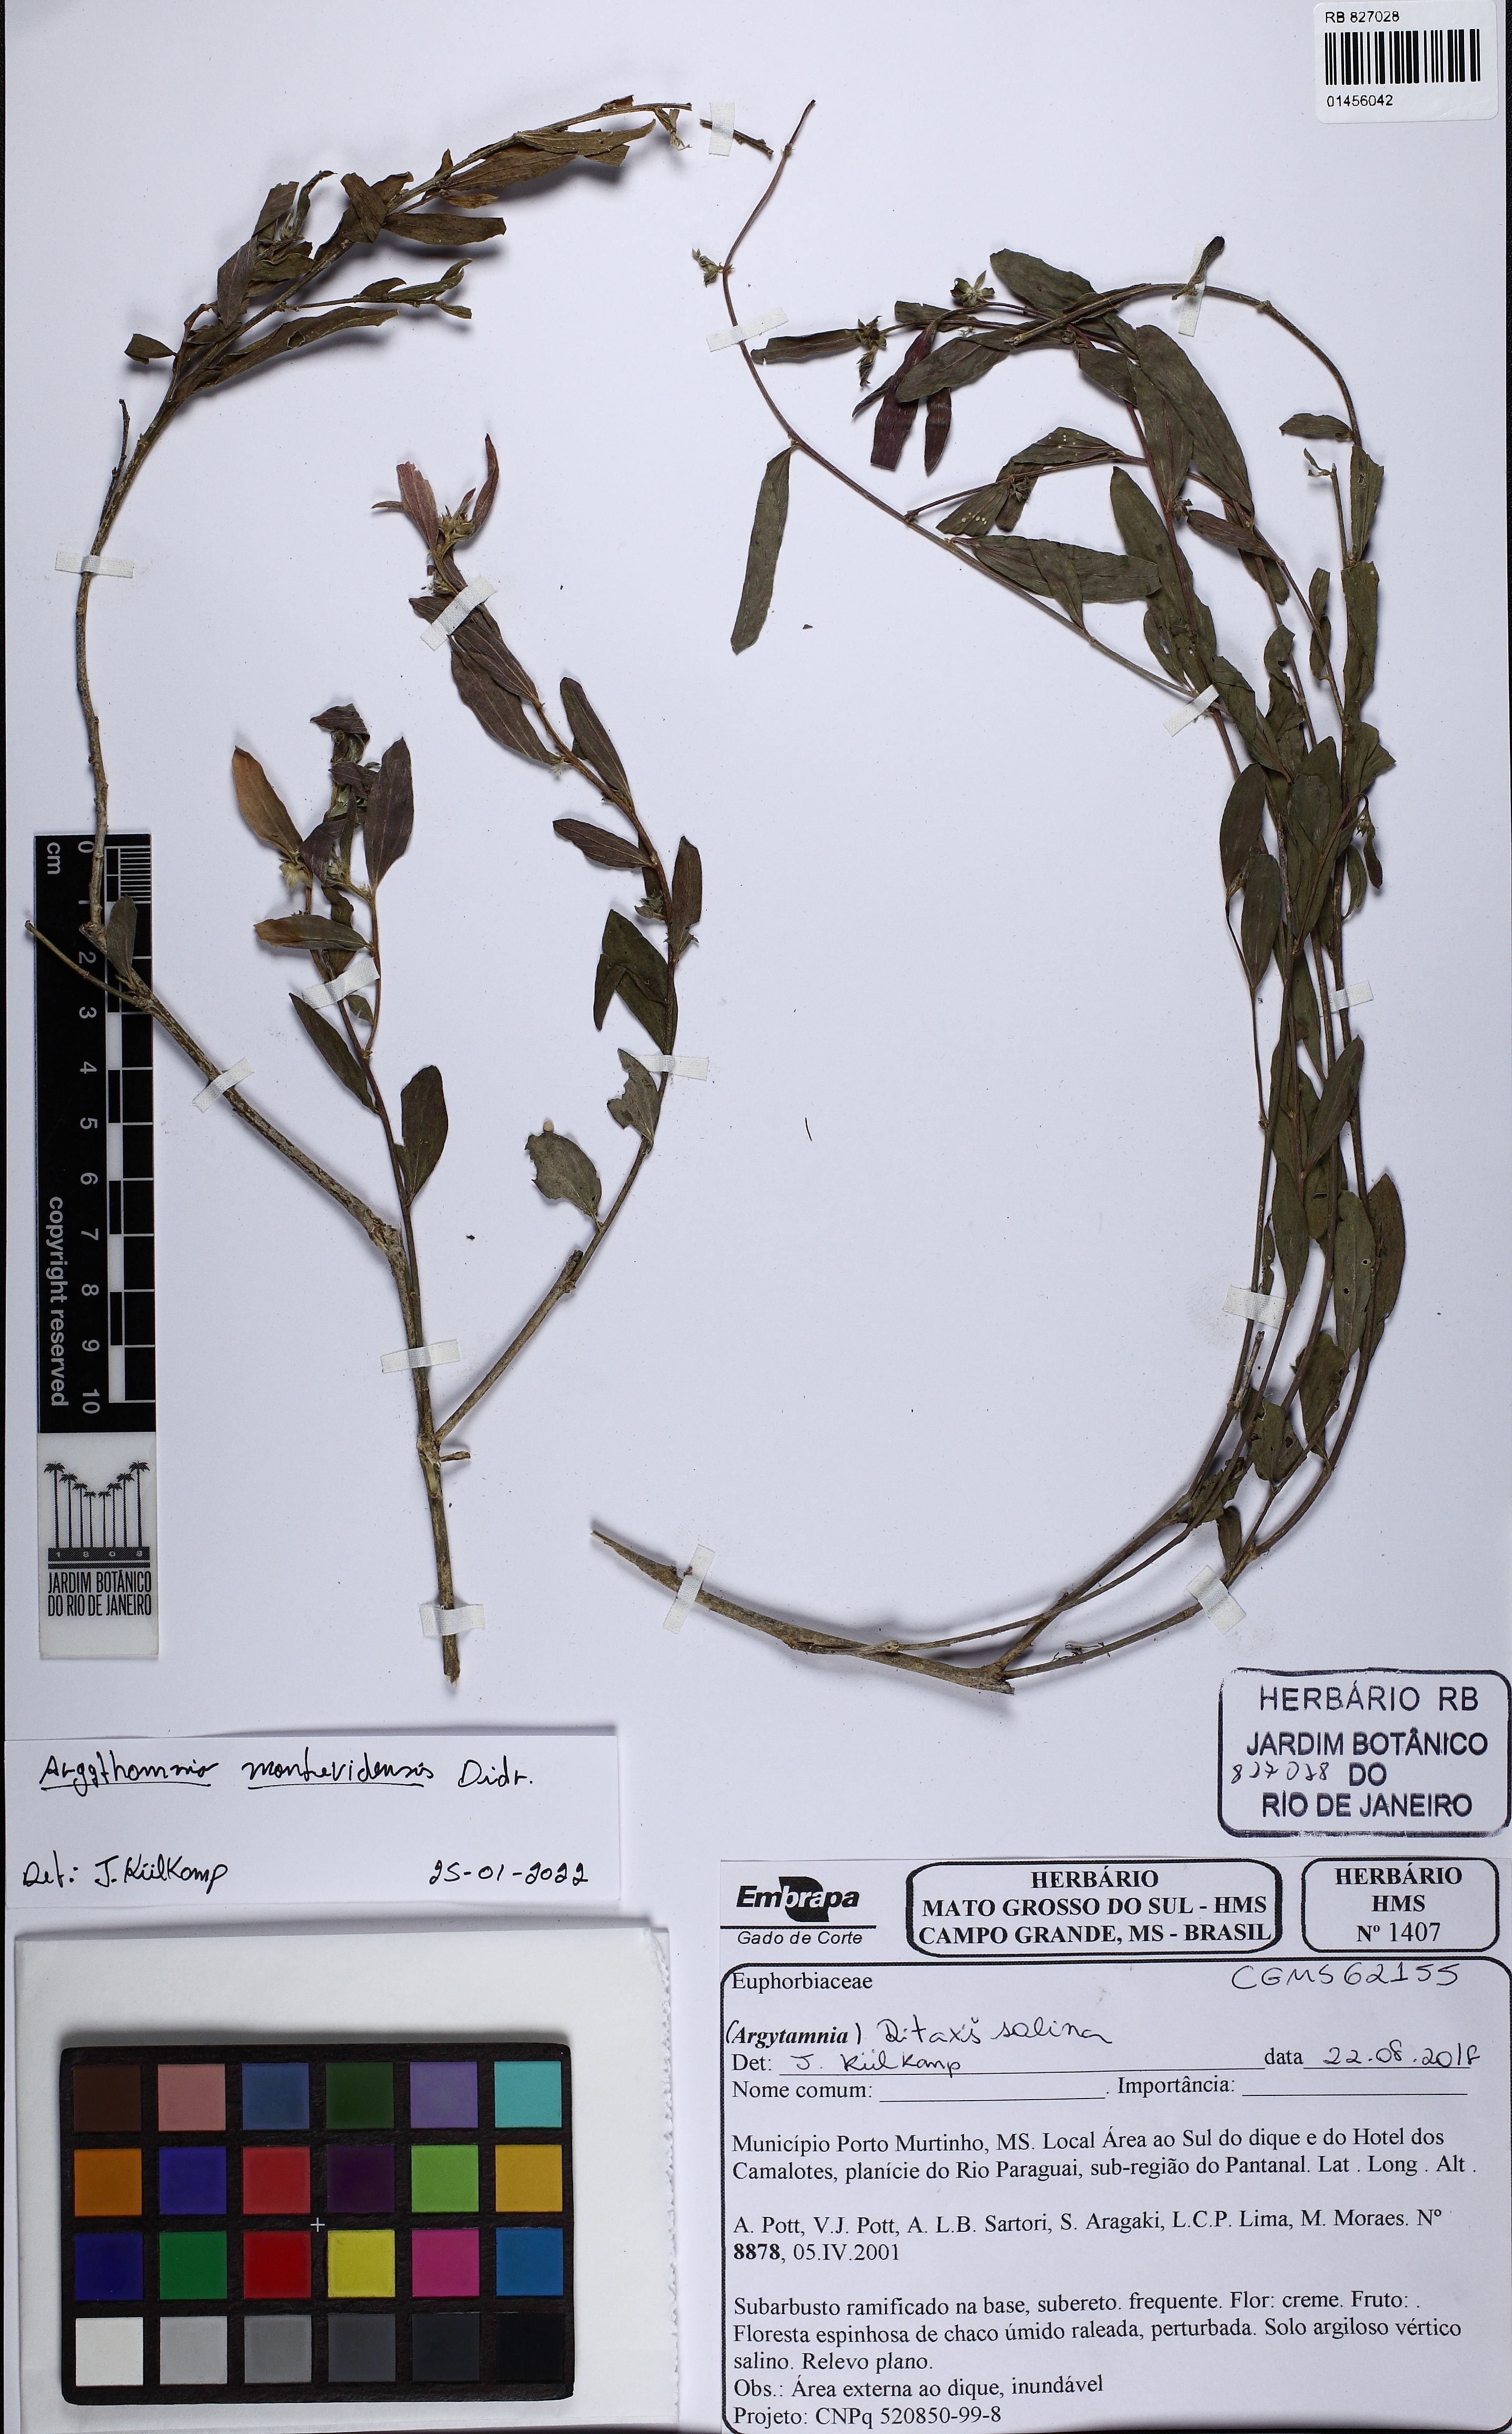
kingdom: Plantae
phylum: Tracheophyta
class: Magnoliopsida
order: Malpighiales
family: Euphorbiaceae
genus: Ditaxis
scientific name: Ditaxis montevidensis
